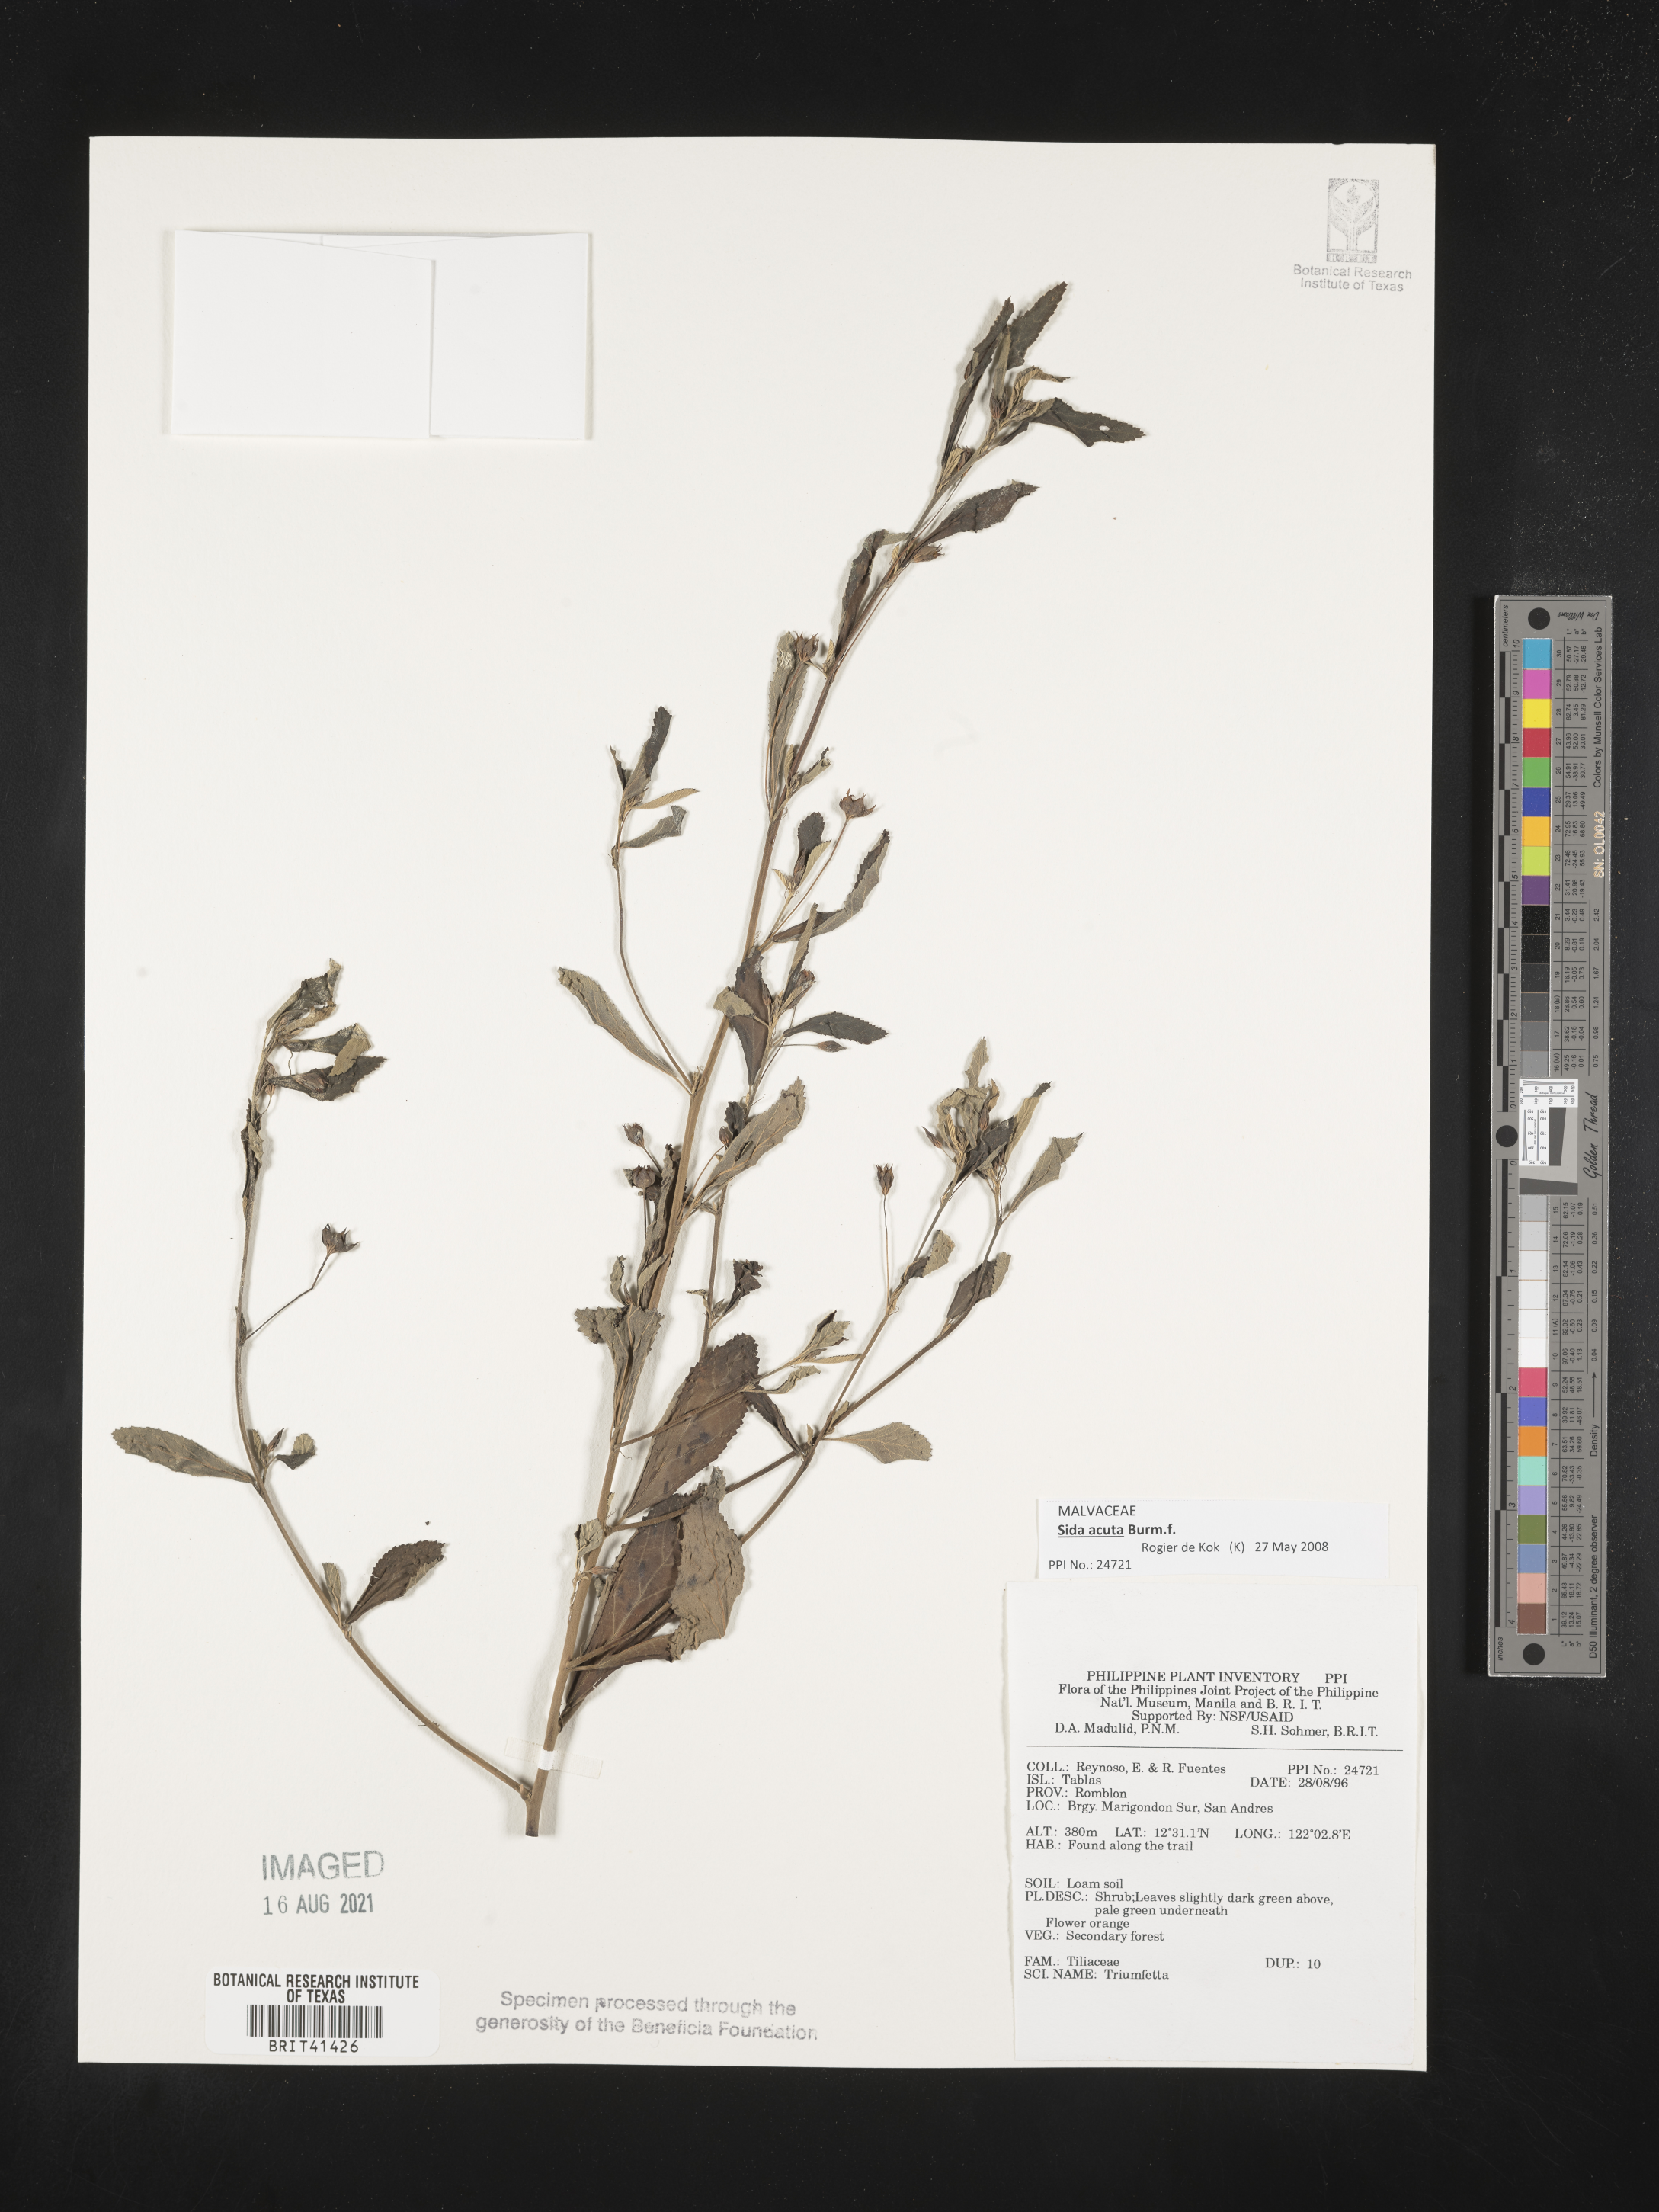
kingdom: Plantae
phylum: Tracheophyta
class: Magnoliopsida
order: Malvales
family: Malvaceae
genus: Triumfetta
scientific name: Triumfetta
